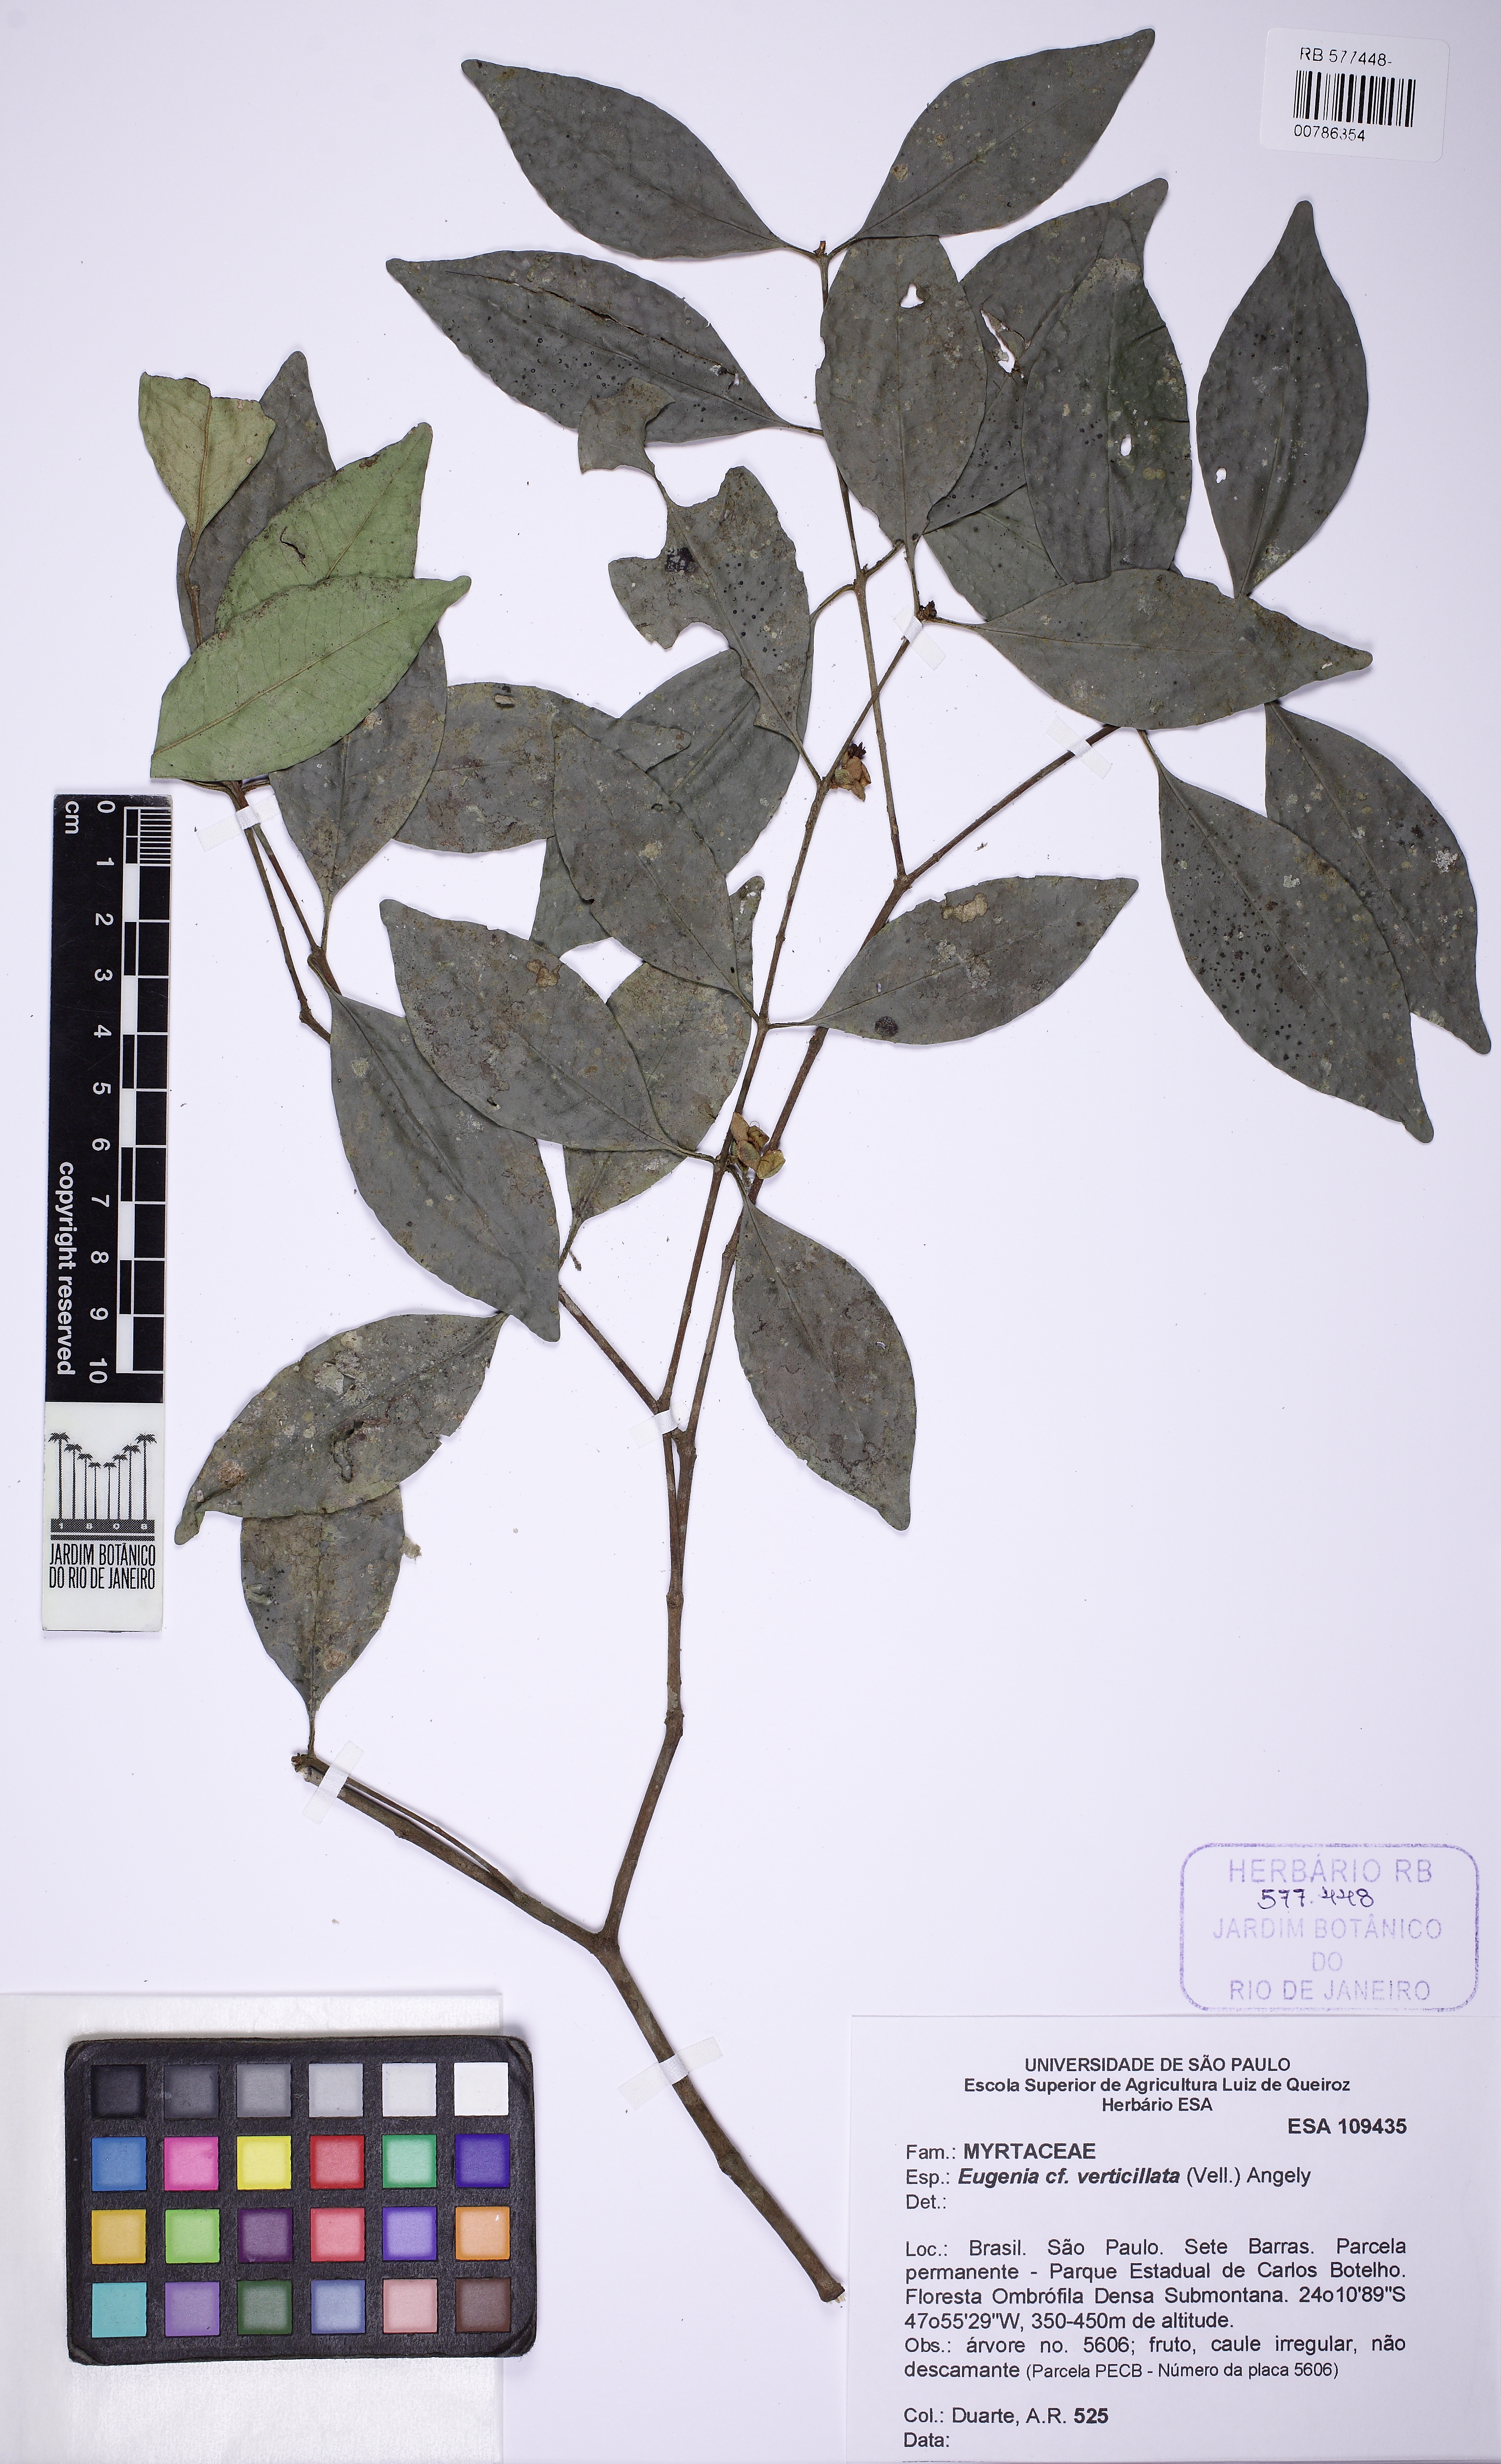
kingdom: Plantae
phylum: Tracheophyta
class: Magnoliopsida
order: Myrtales
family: Myrtaceae
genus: Eugenia
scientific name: Eugenia verticillata
